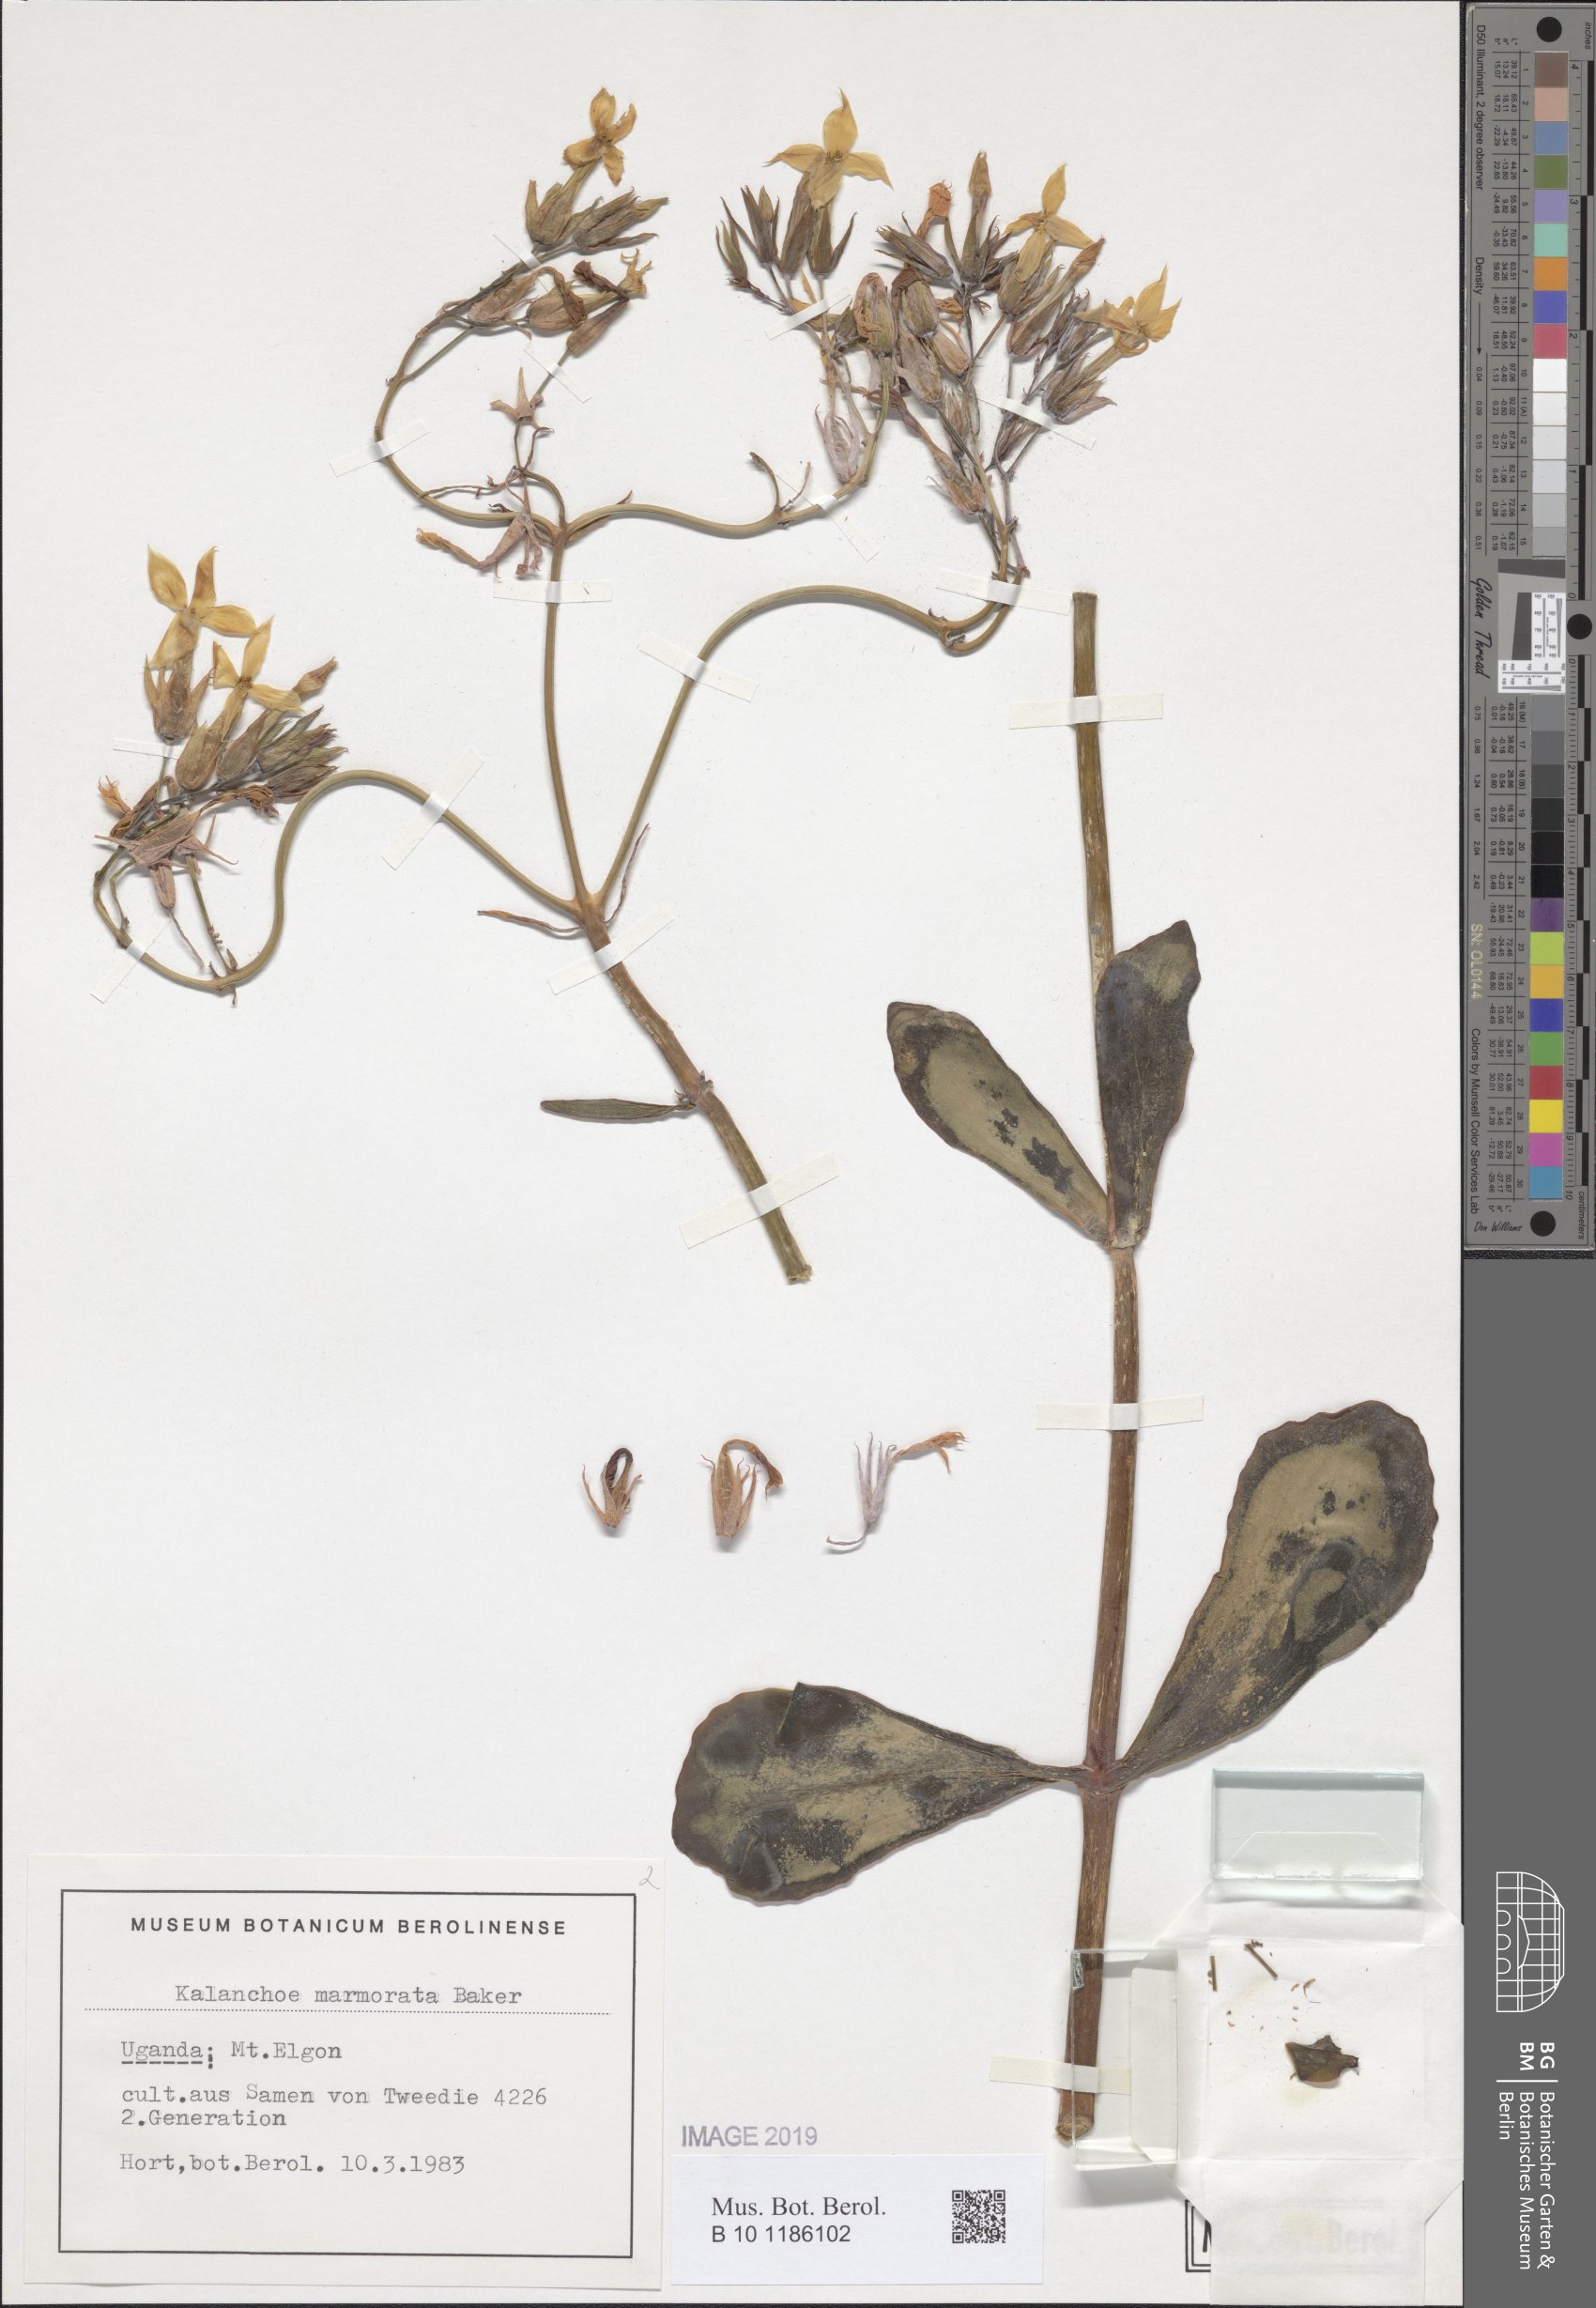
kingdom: Plantae
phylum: Tracheophyta
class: Magnoliopsida
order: Saxifragales
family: Crassulaceae
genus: Kalanchoe
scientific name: Kalanchoe marmorata
